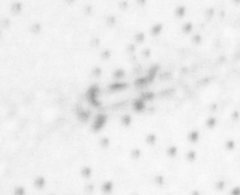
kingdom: Animalia
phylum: Chordata
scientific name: Chordata
